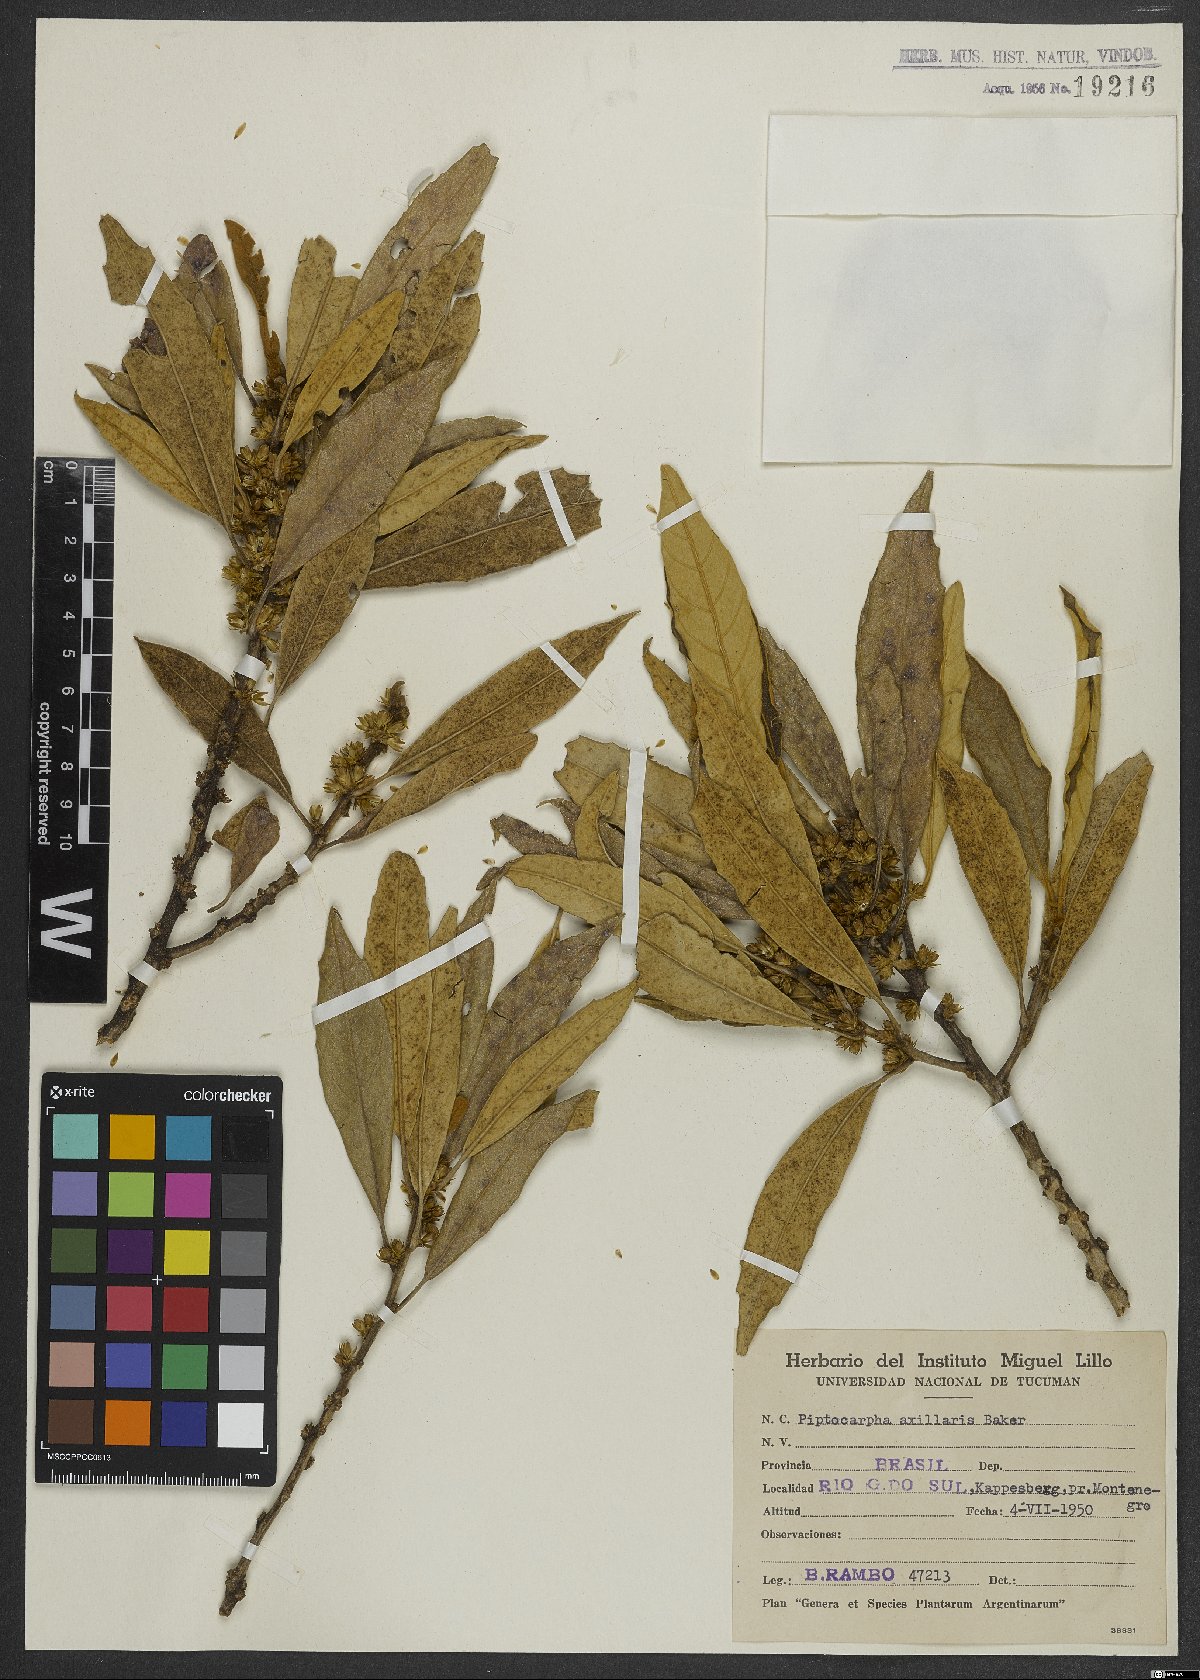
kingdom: Plantae
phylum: Tracheophyta
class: Magnoliopsida
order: Asterales
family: Asteraceae
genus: Piptocarpha
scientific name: Piptocarpha axillaris
